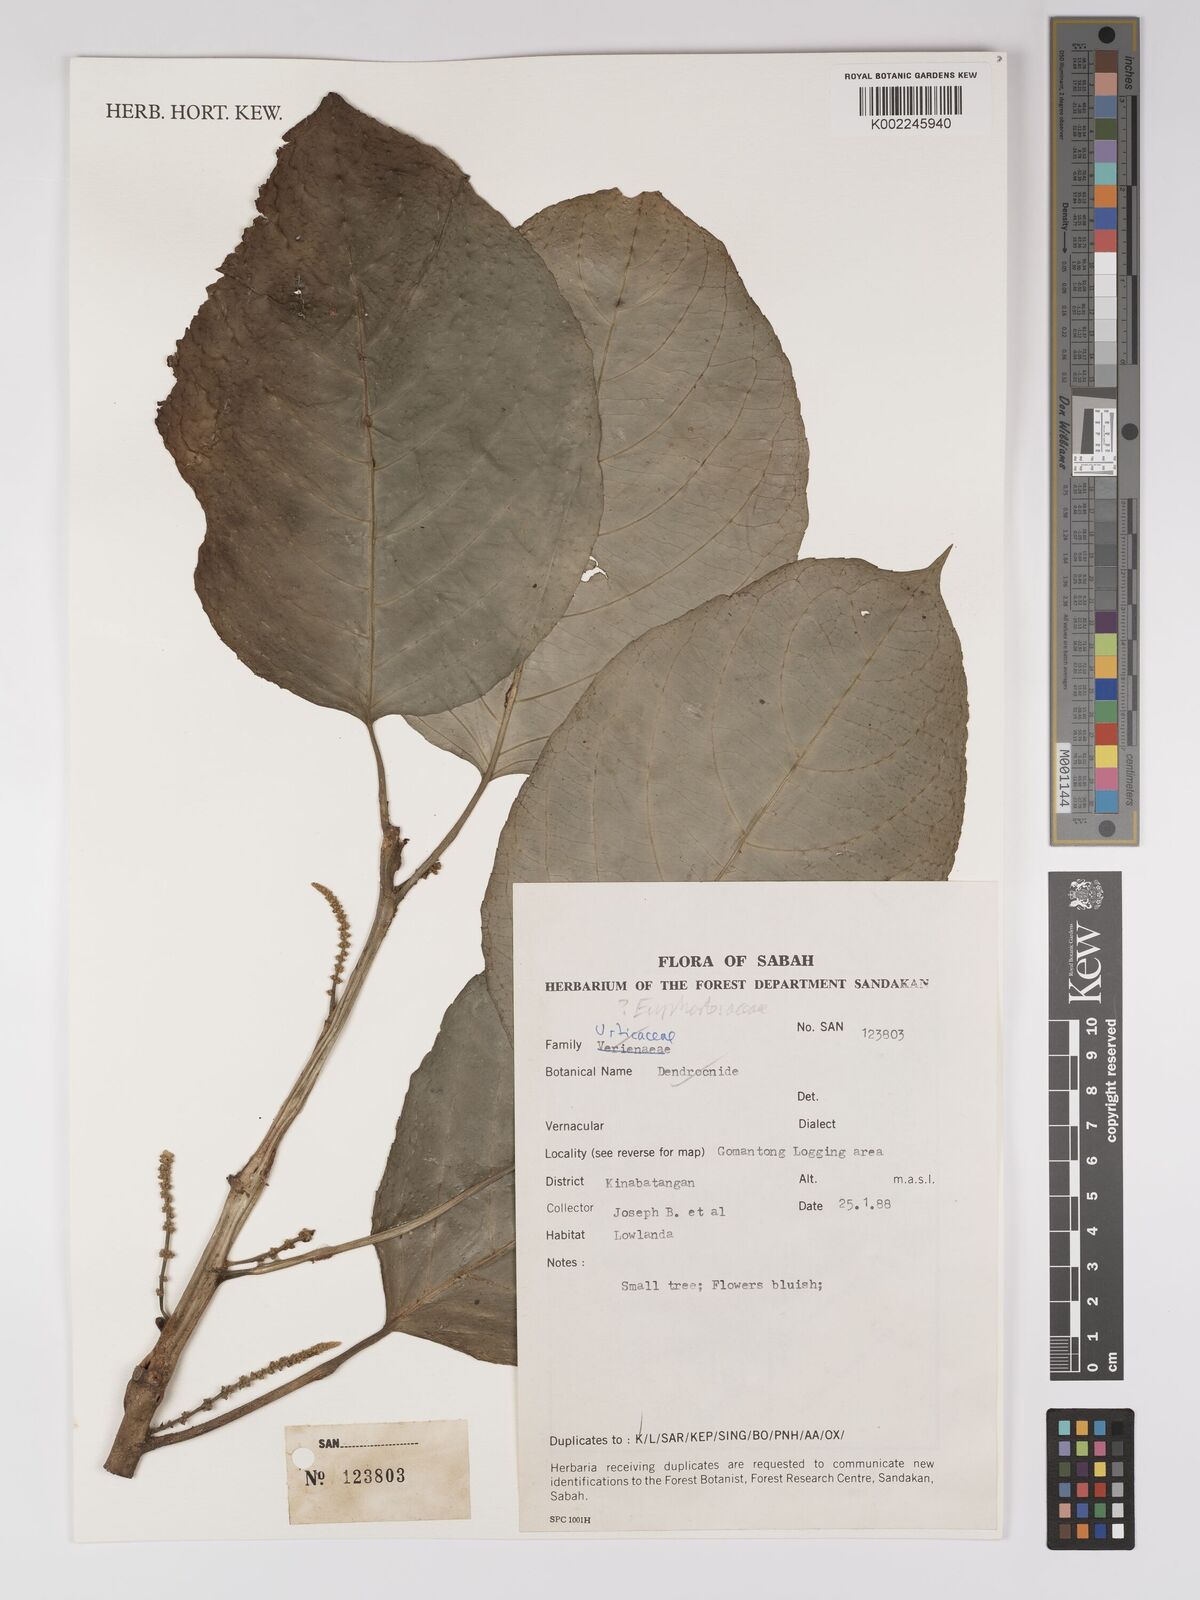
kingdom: Plantae
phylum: Tracheophyta
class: Magnoliopsida
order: Malpighiales
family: Euphorbiaceae
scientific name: Euphorbiaceae
